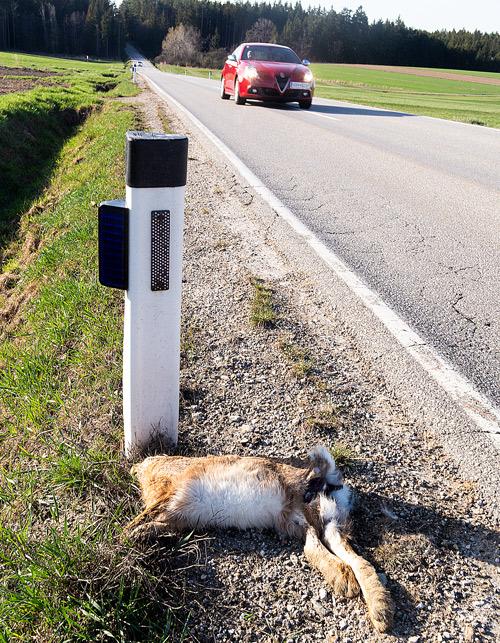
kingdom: Animalia
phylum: Chordata
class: Mammalia
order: Lagomorpha
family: Leporidae
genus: Lepus
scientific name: Lepus europaeus
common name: European hare
